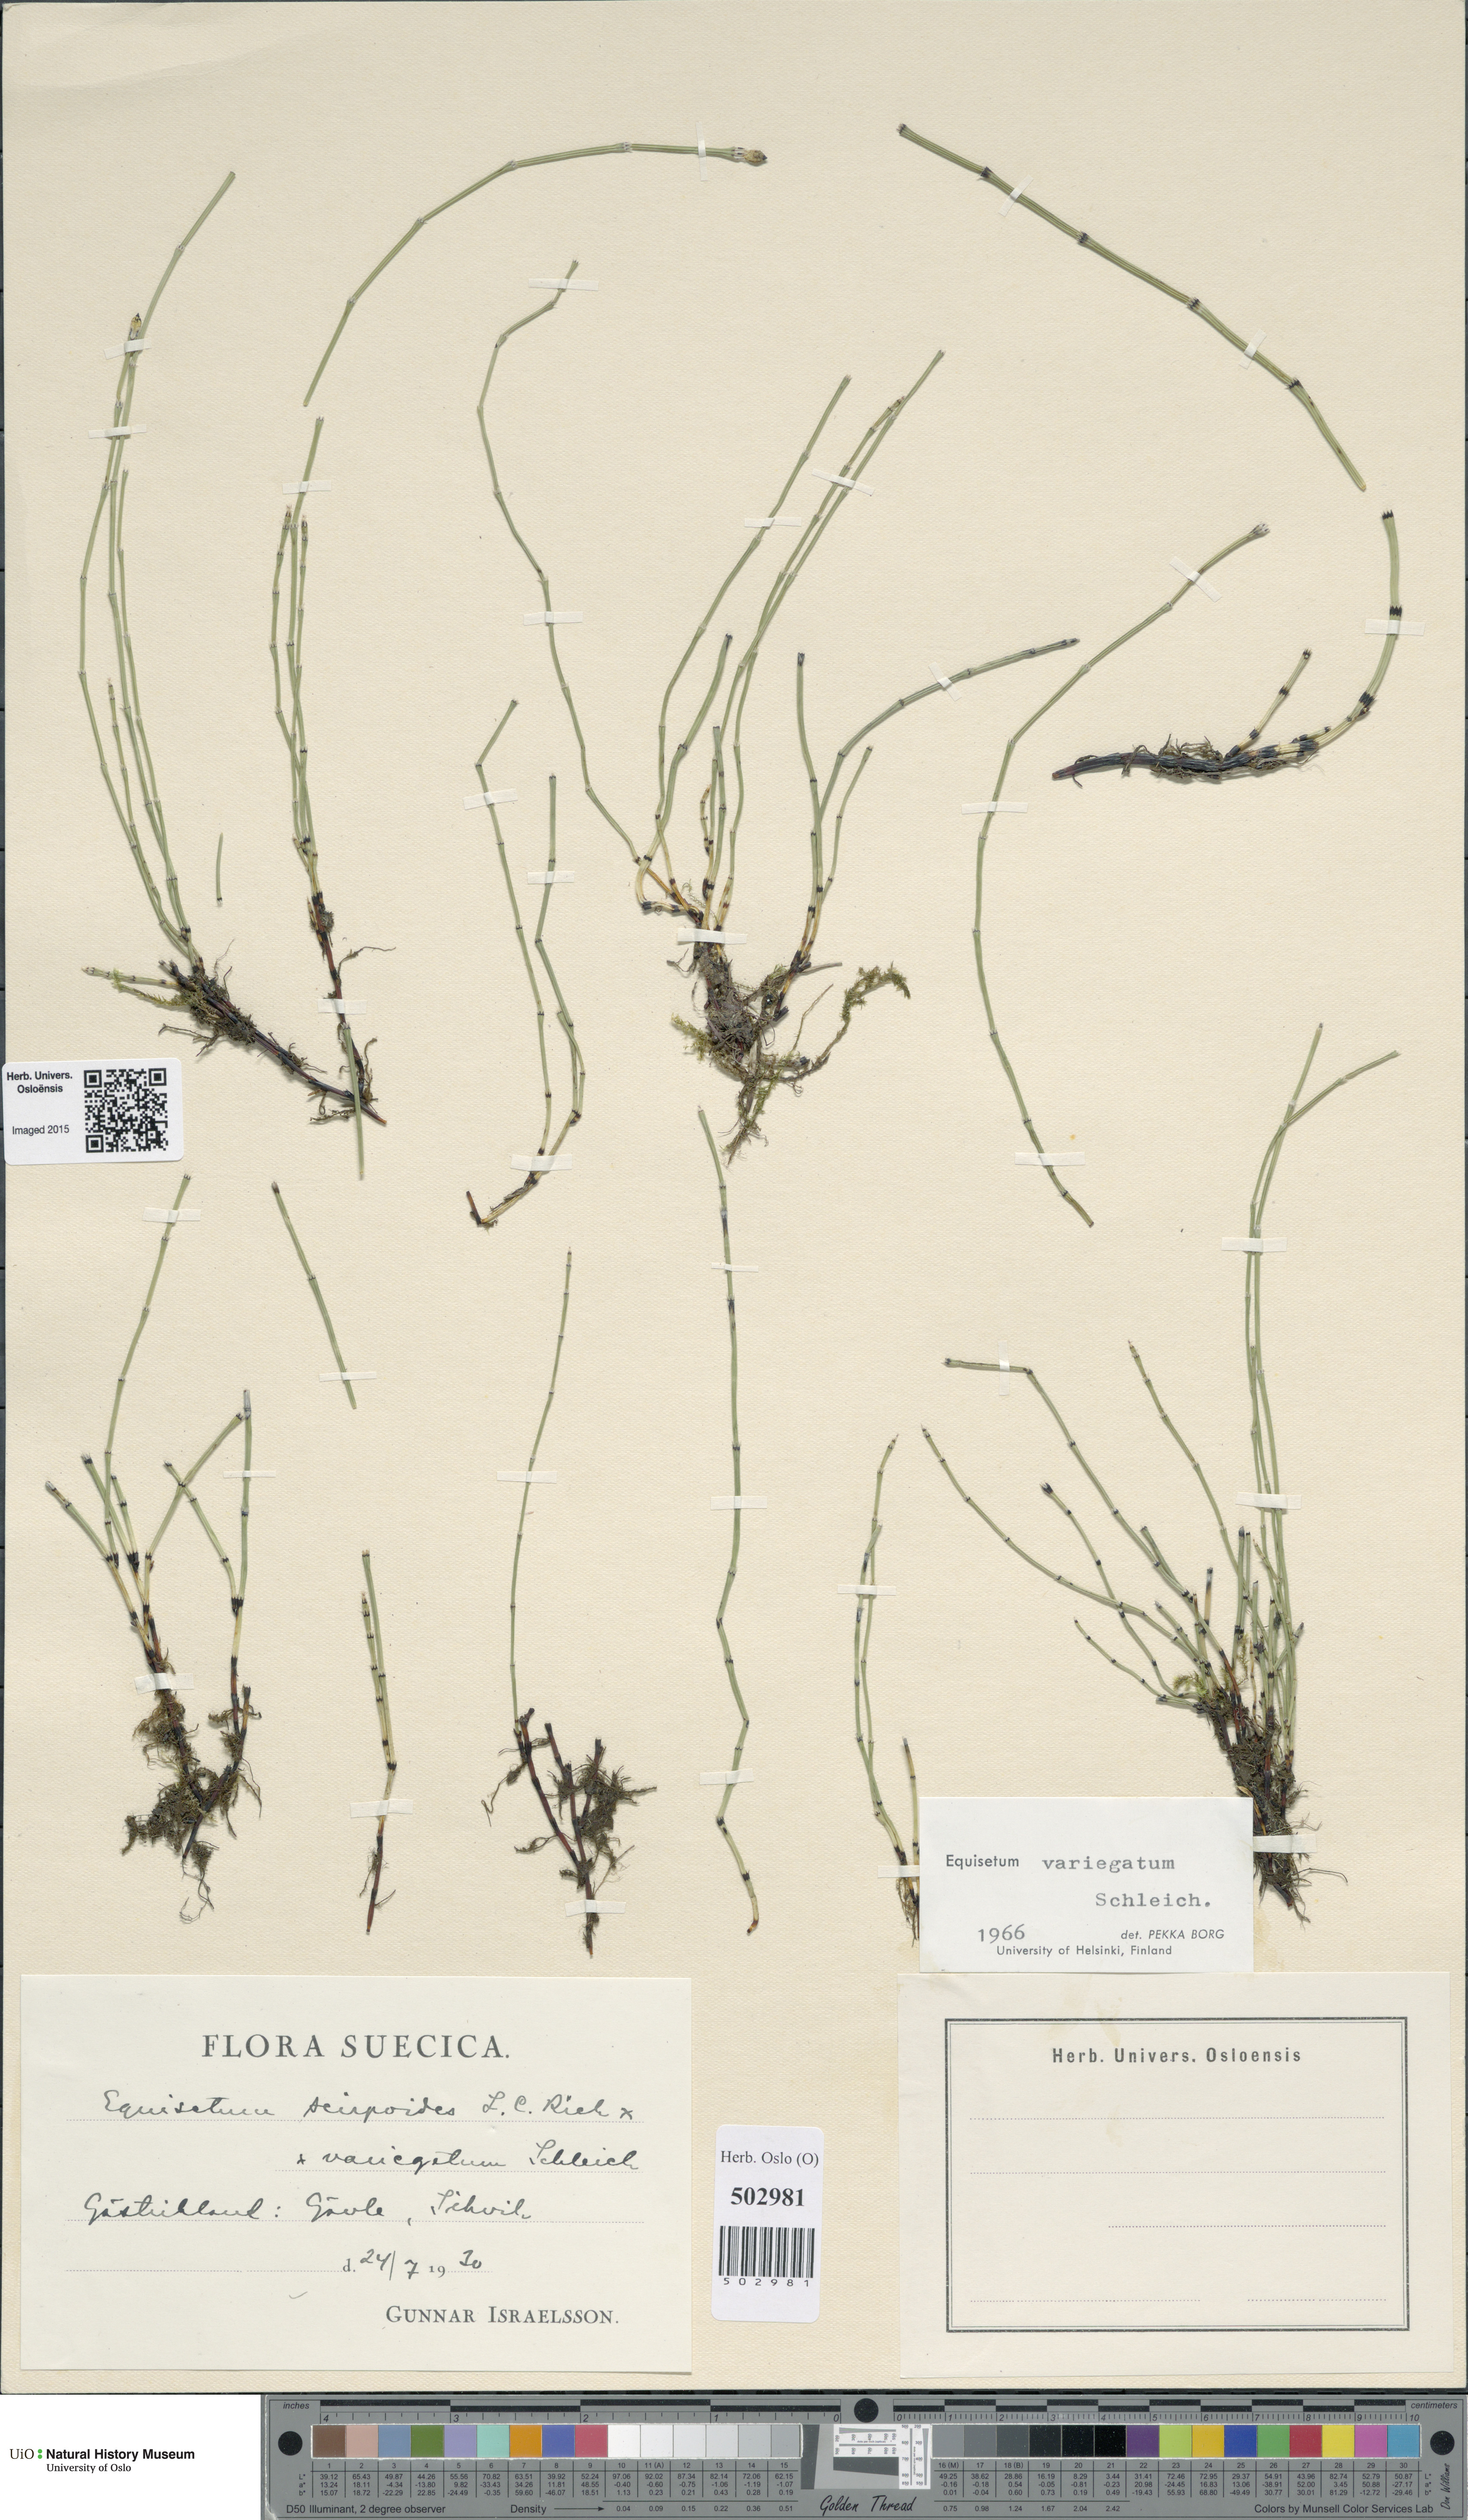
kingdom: Plantae
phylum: Tracheophyta
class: Polypodiopsida
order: Equisetales
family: Equisetaceae
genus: Equisetum
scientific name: Equisetum variegatum
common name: Variegated horsetail
